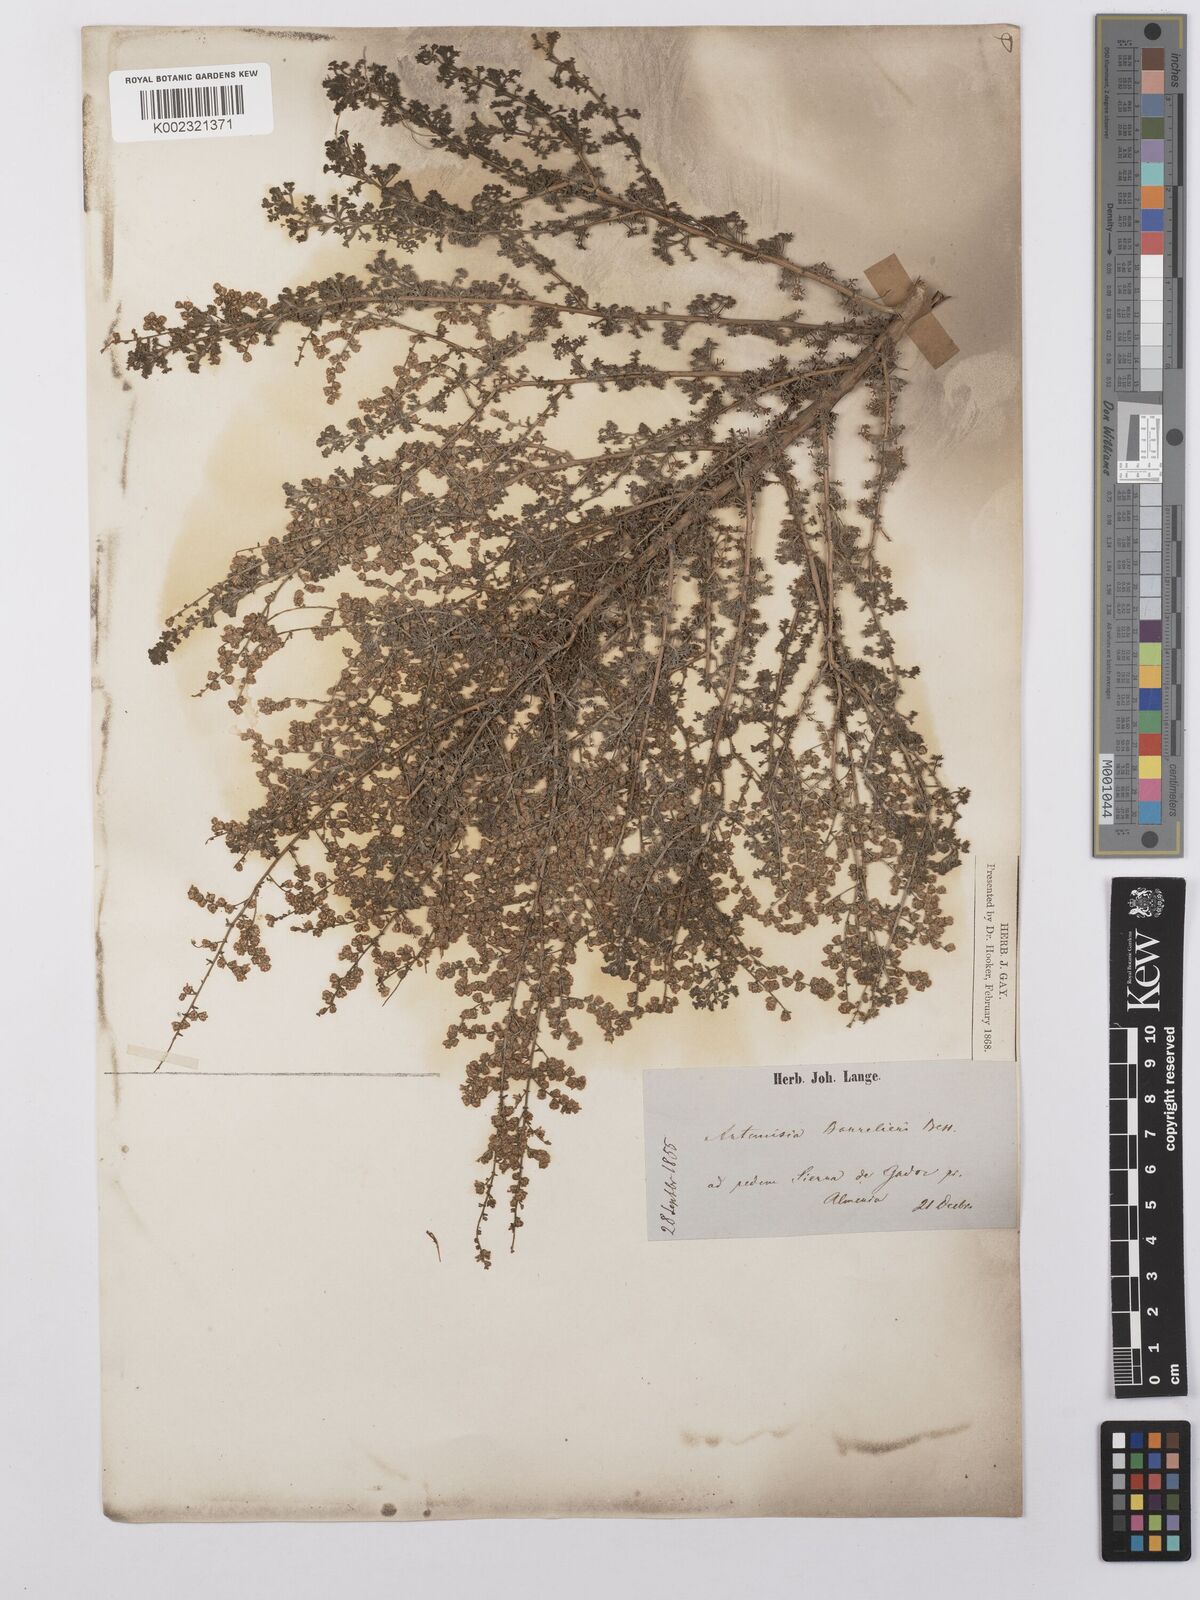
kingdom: Plantae
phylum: Tracheophyta
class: Magnoliopsida
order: Asterales
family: Asteraceae
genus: Artemisia
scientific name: Artemisia barrelieri
